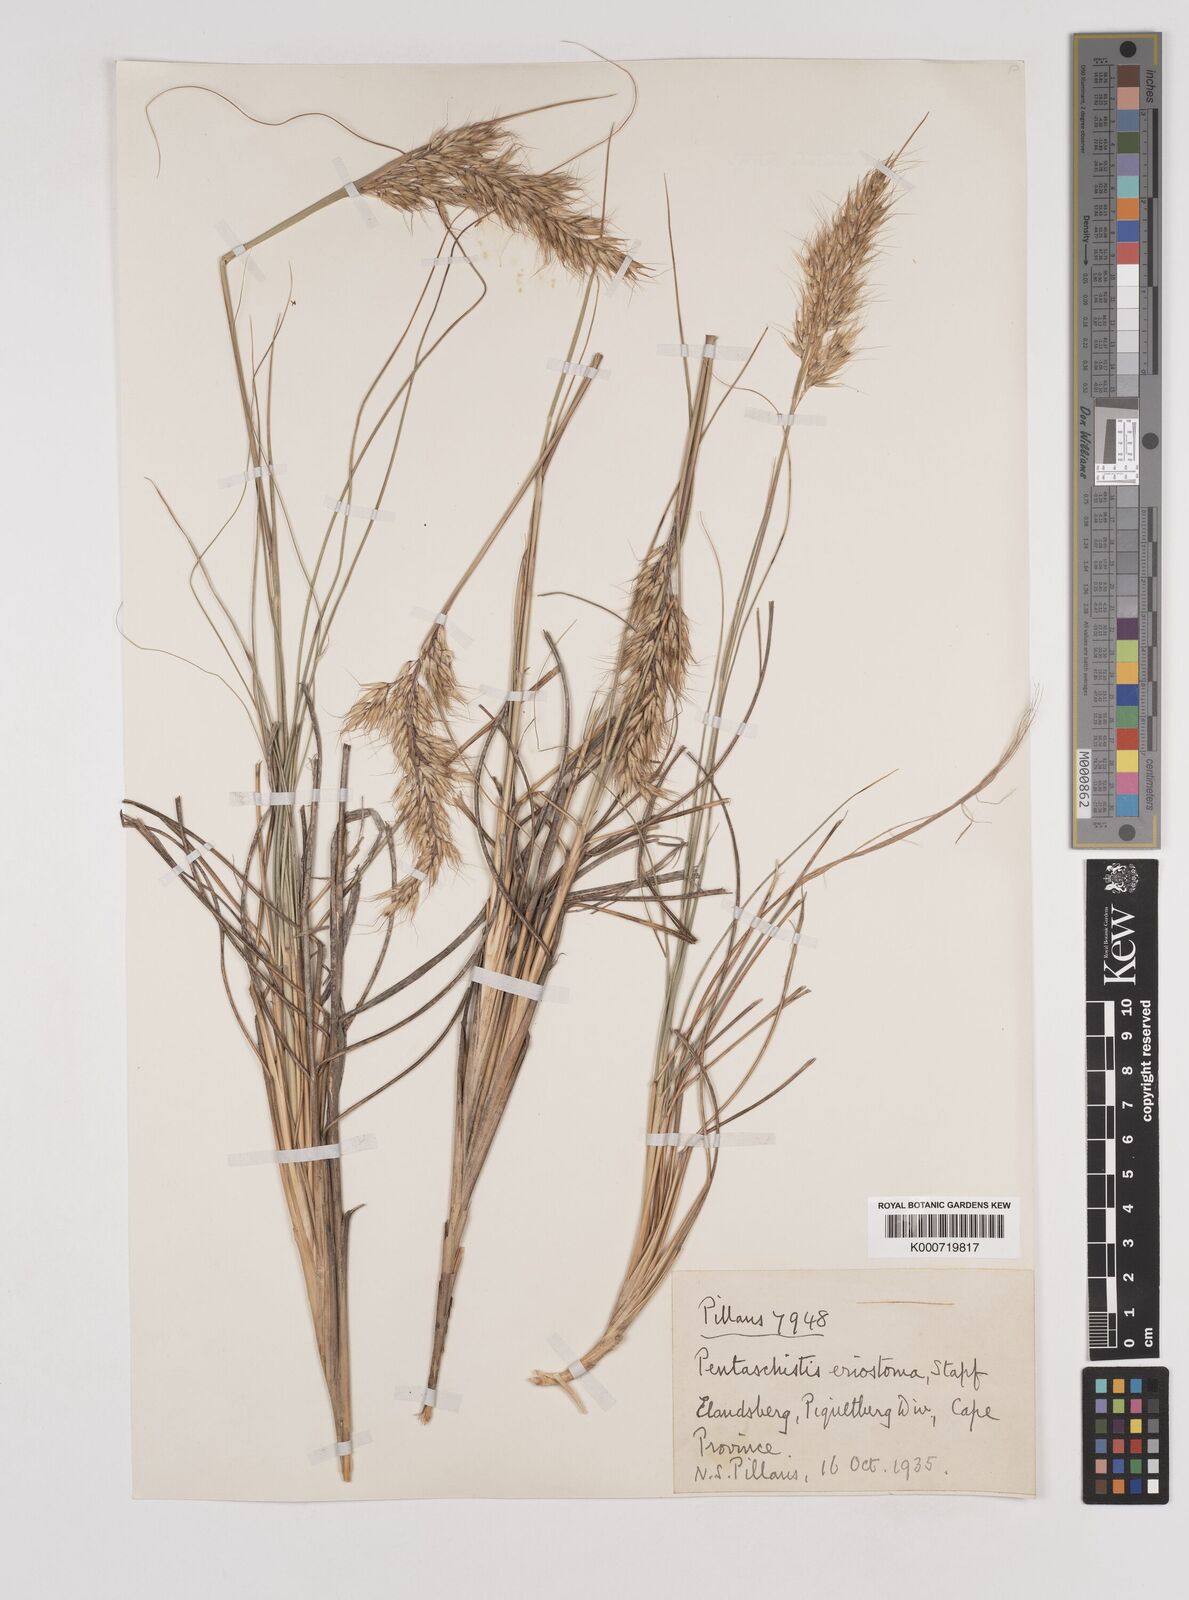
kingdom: Plantae
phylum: Tracheophyta
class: Liliopsida
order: Poales
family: Poaceae
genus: Pentameris
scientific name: Pentameris eriostoma
